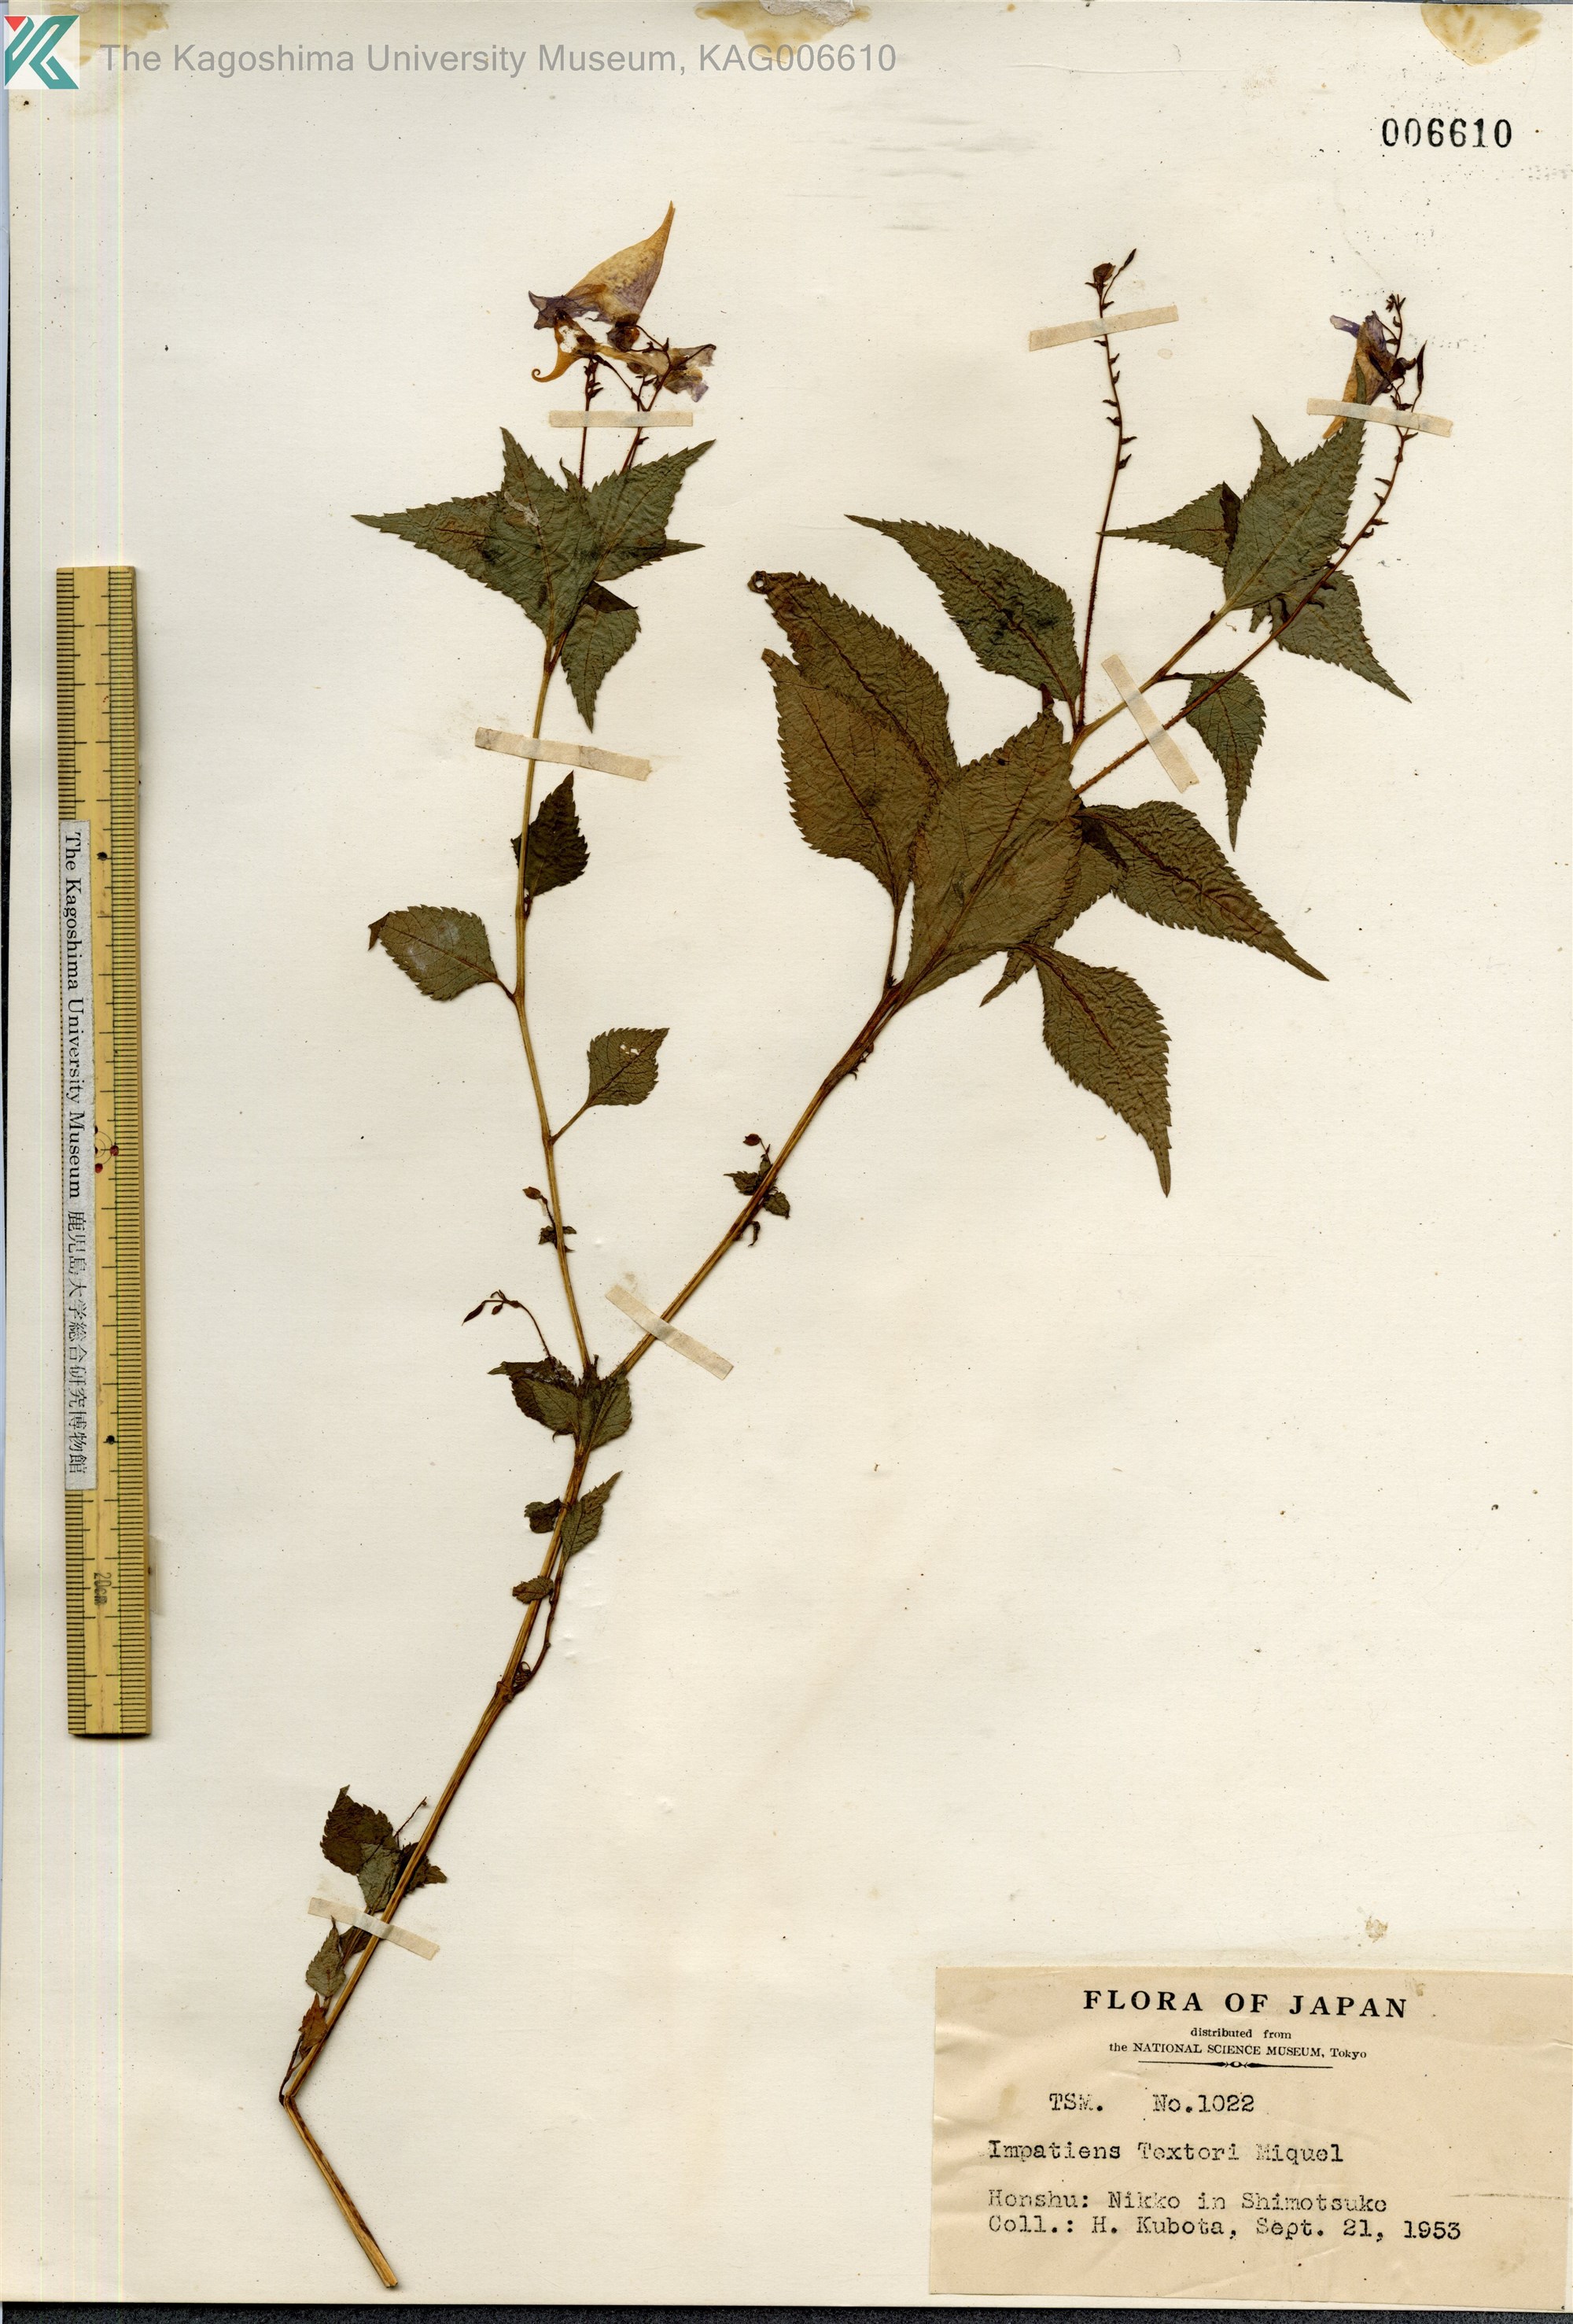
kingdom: Plantae
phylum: Tracheophyta
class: Magnoliopsida
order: Ericales
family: Balsaminaceae
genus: Impatiens
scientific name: Impatiens textorii
